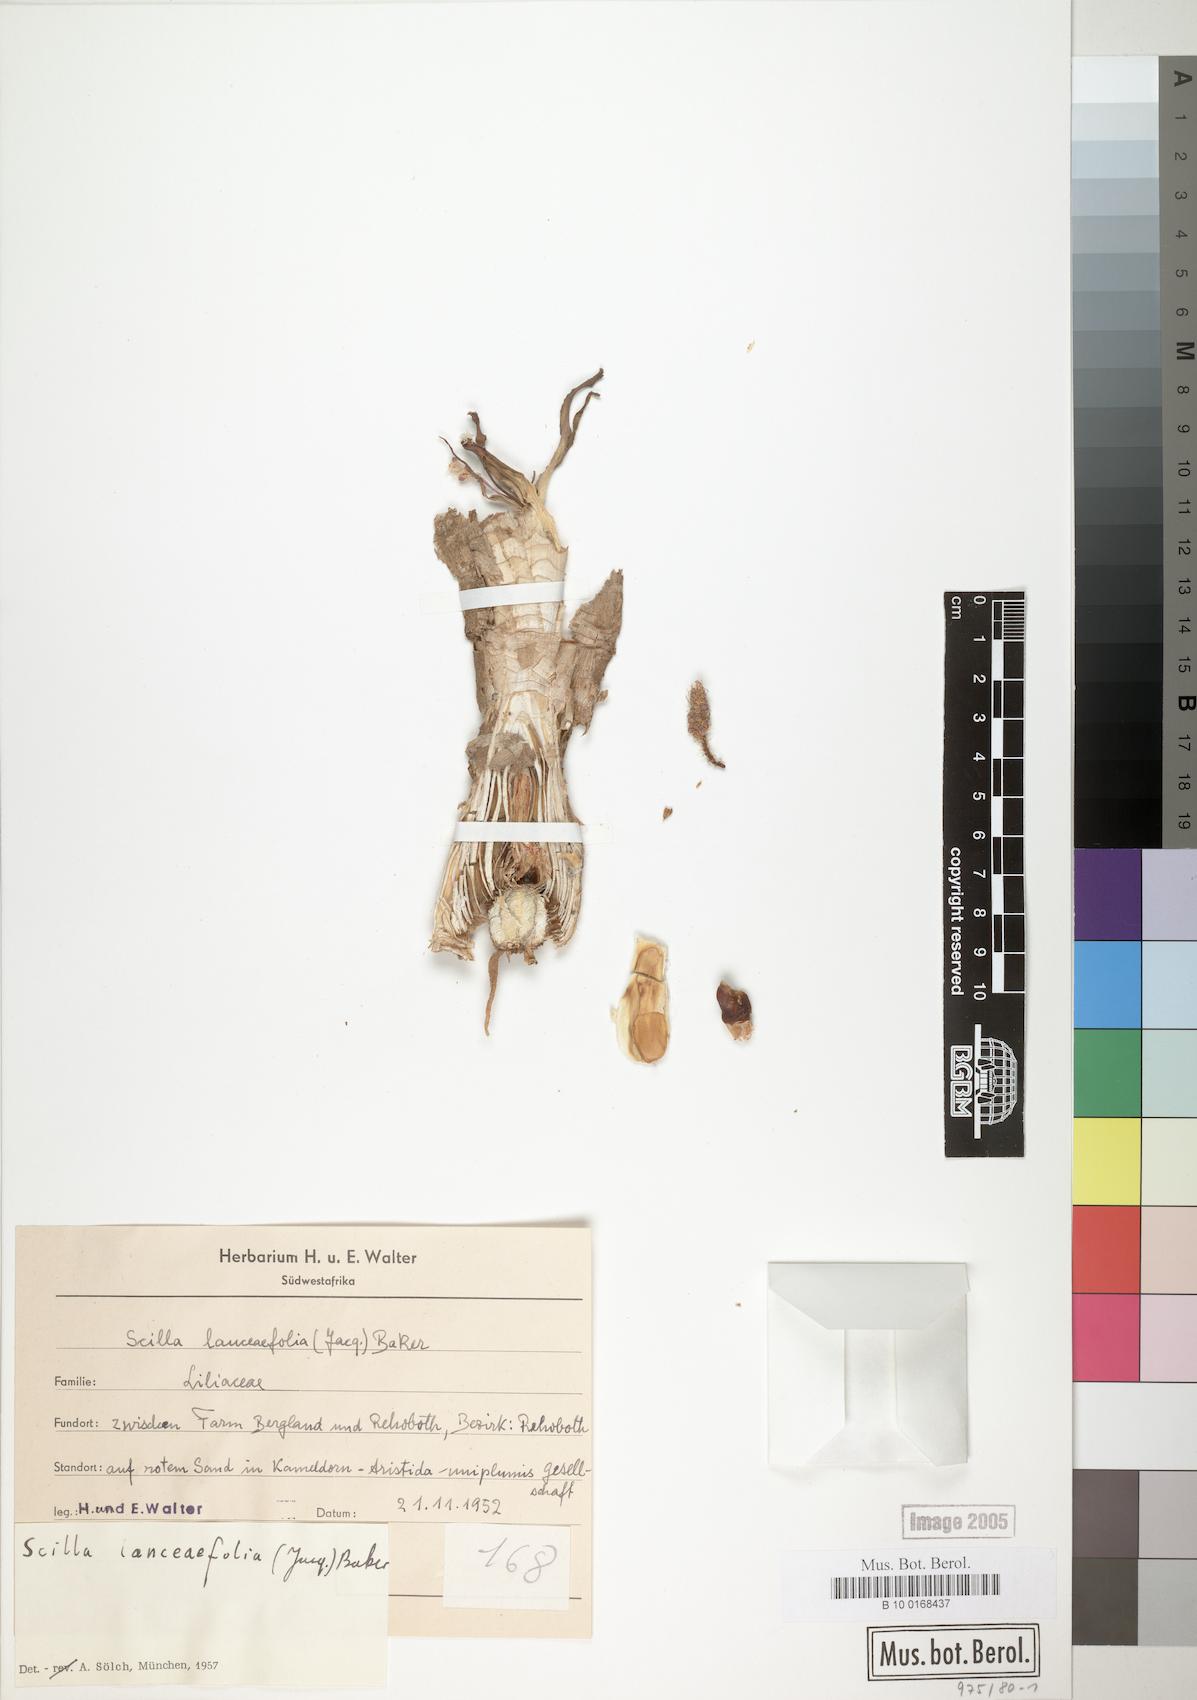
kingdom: Plantae
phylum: Tracheophyta
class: Liliopsida
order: Asparagales
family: Asparagaceae
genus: Ledebouria
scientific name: Ledebouria revoluta
